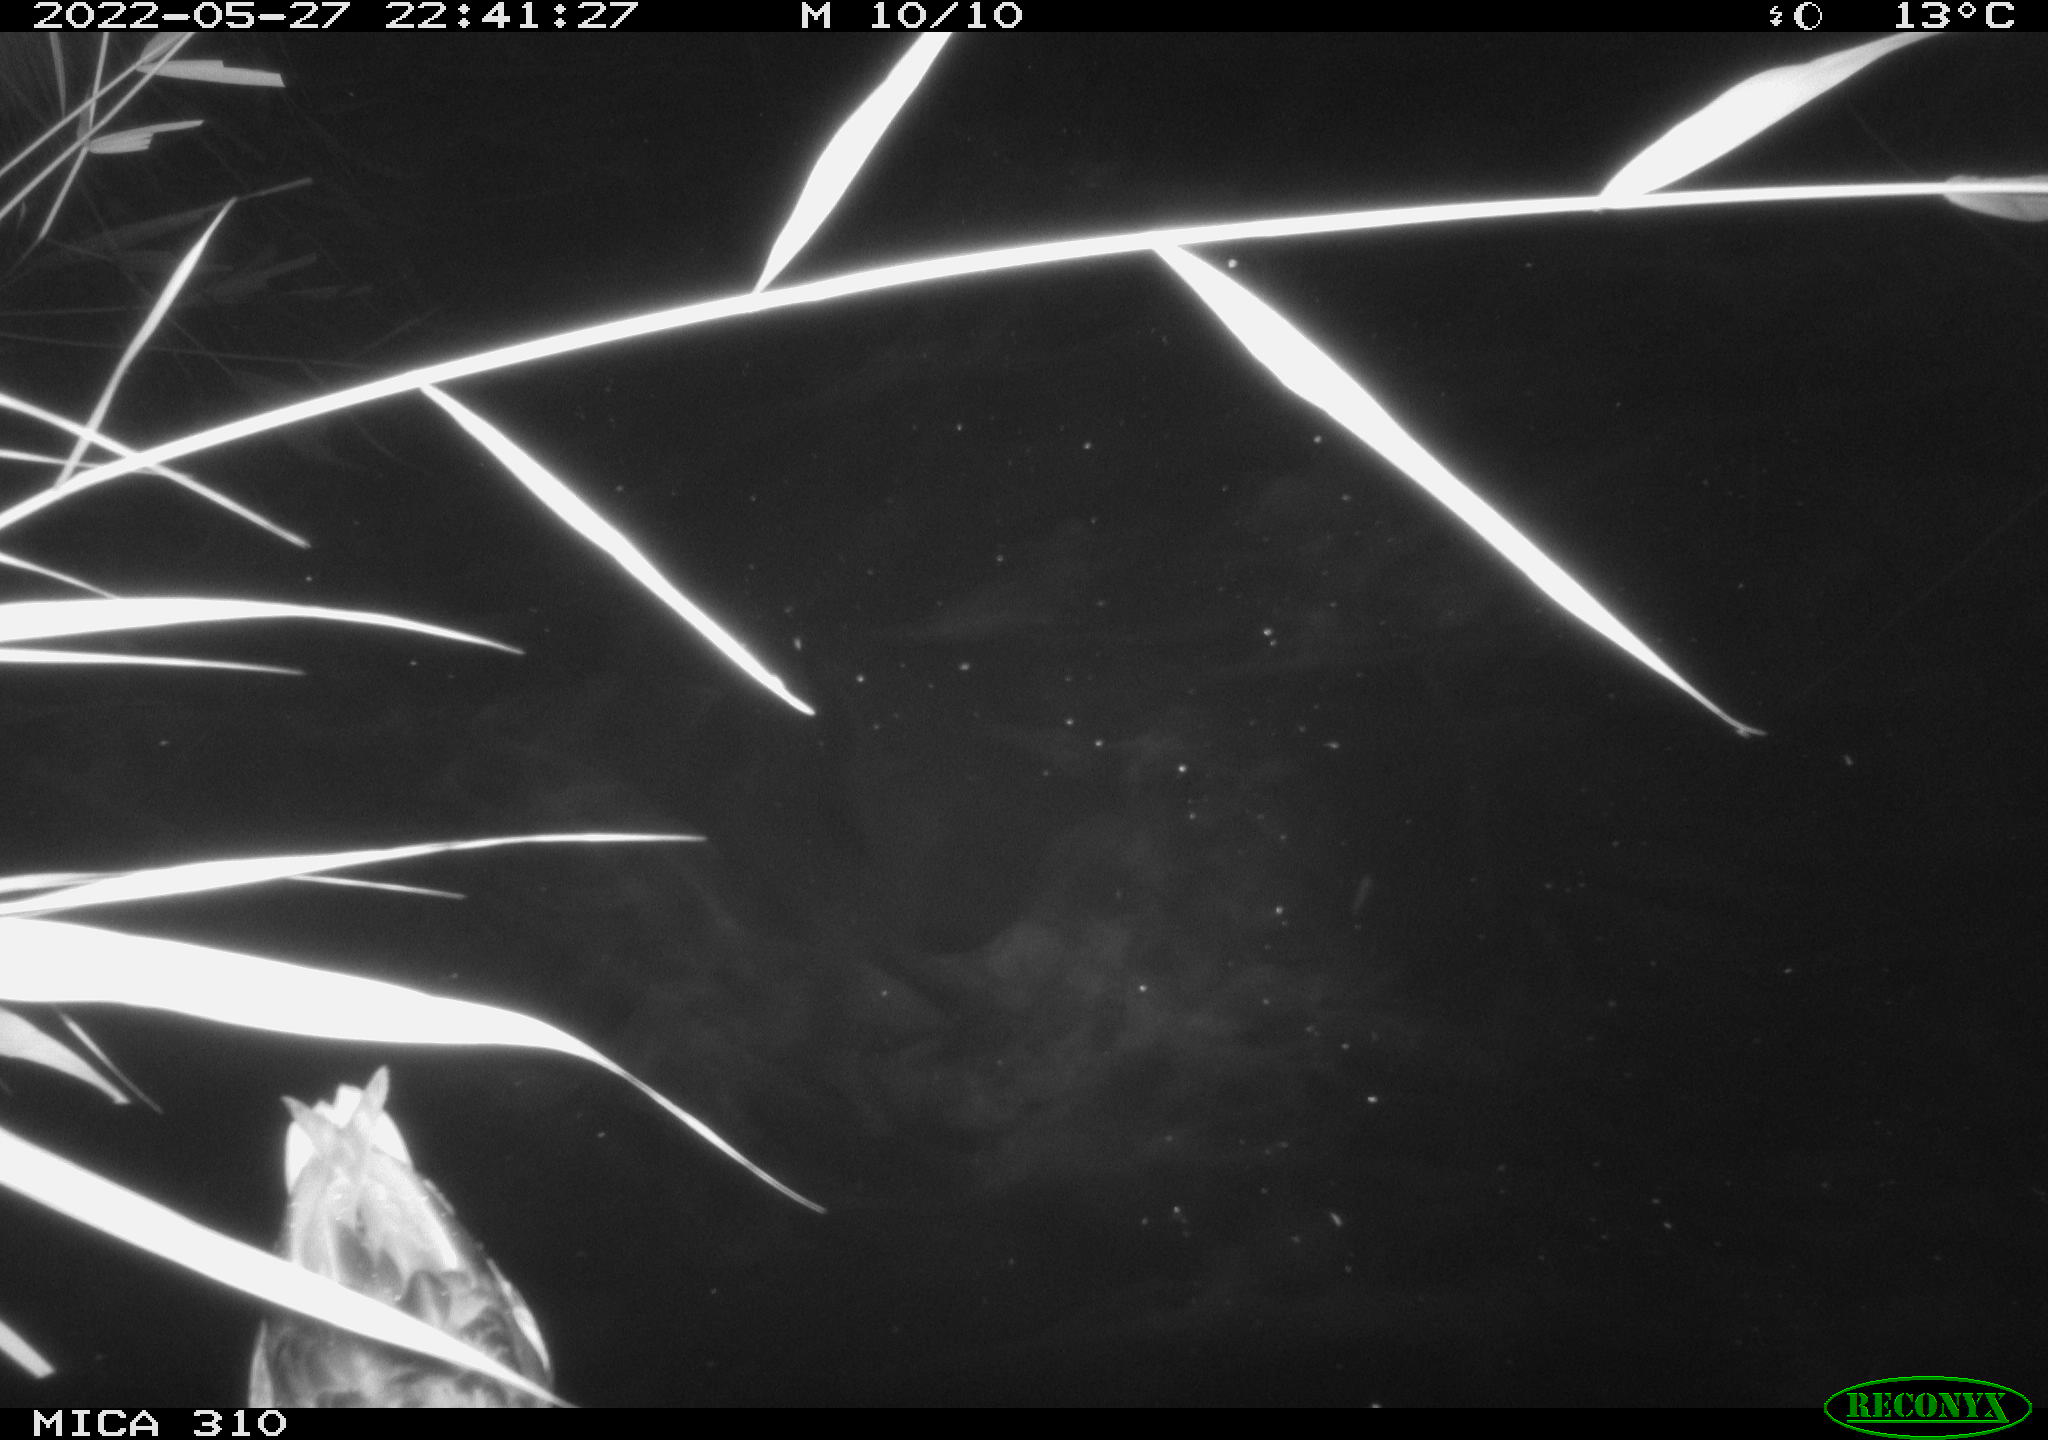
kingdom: Animalia
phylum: Chordata
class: Aves
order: Anseriformes
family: Anatidae
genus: Anas
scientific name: Anas platyrhynchos
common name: Mallard
